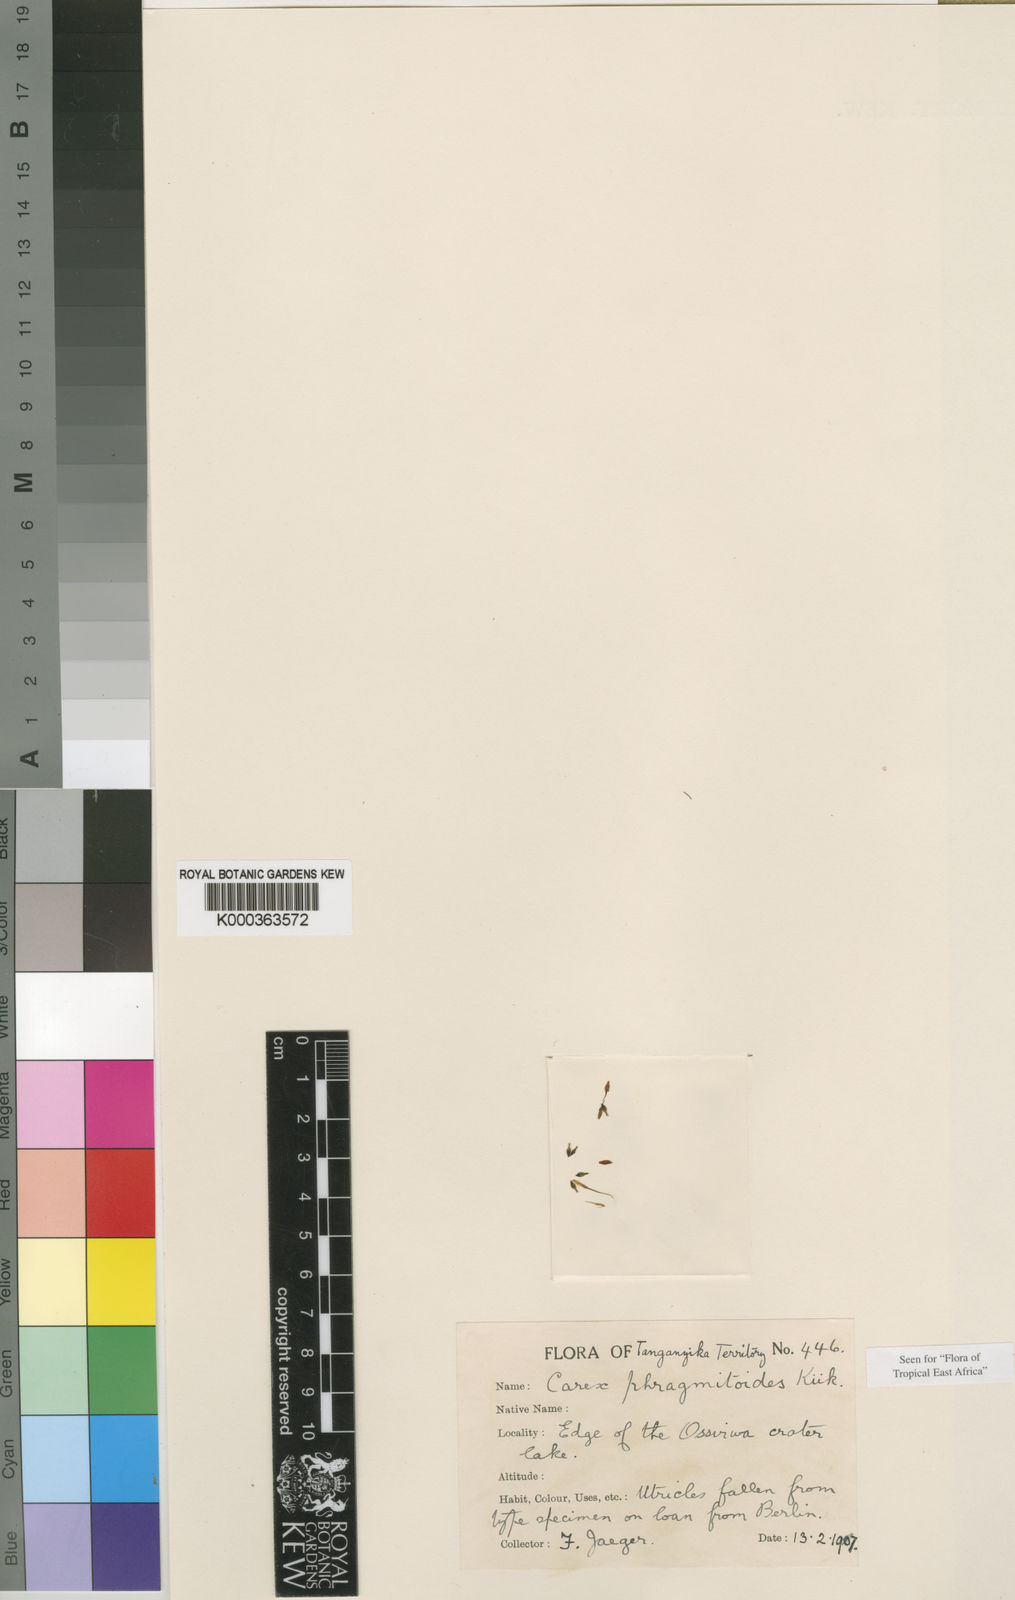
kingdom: Plantae
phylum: Tracheophyta
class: Liliopsida
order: Poales
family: Cyperaceae
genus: Carex
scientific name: Carex
